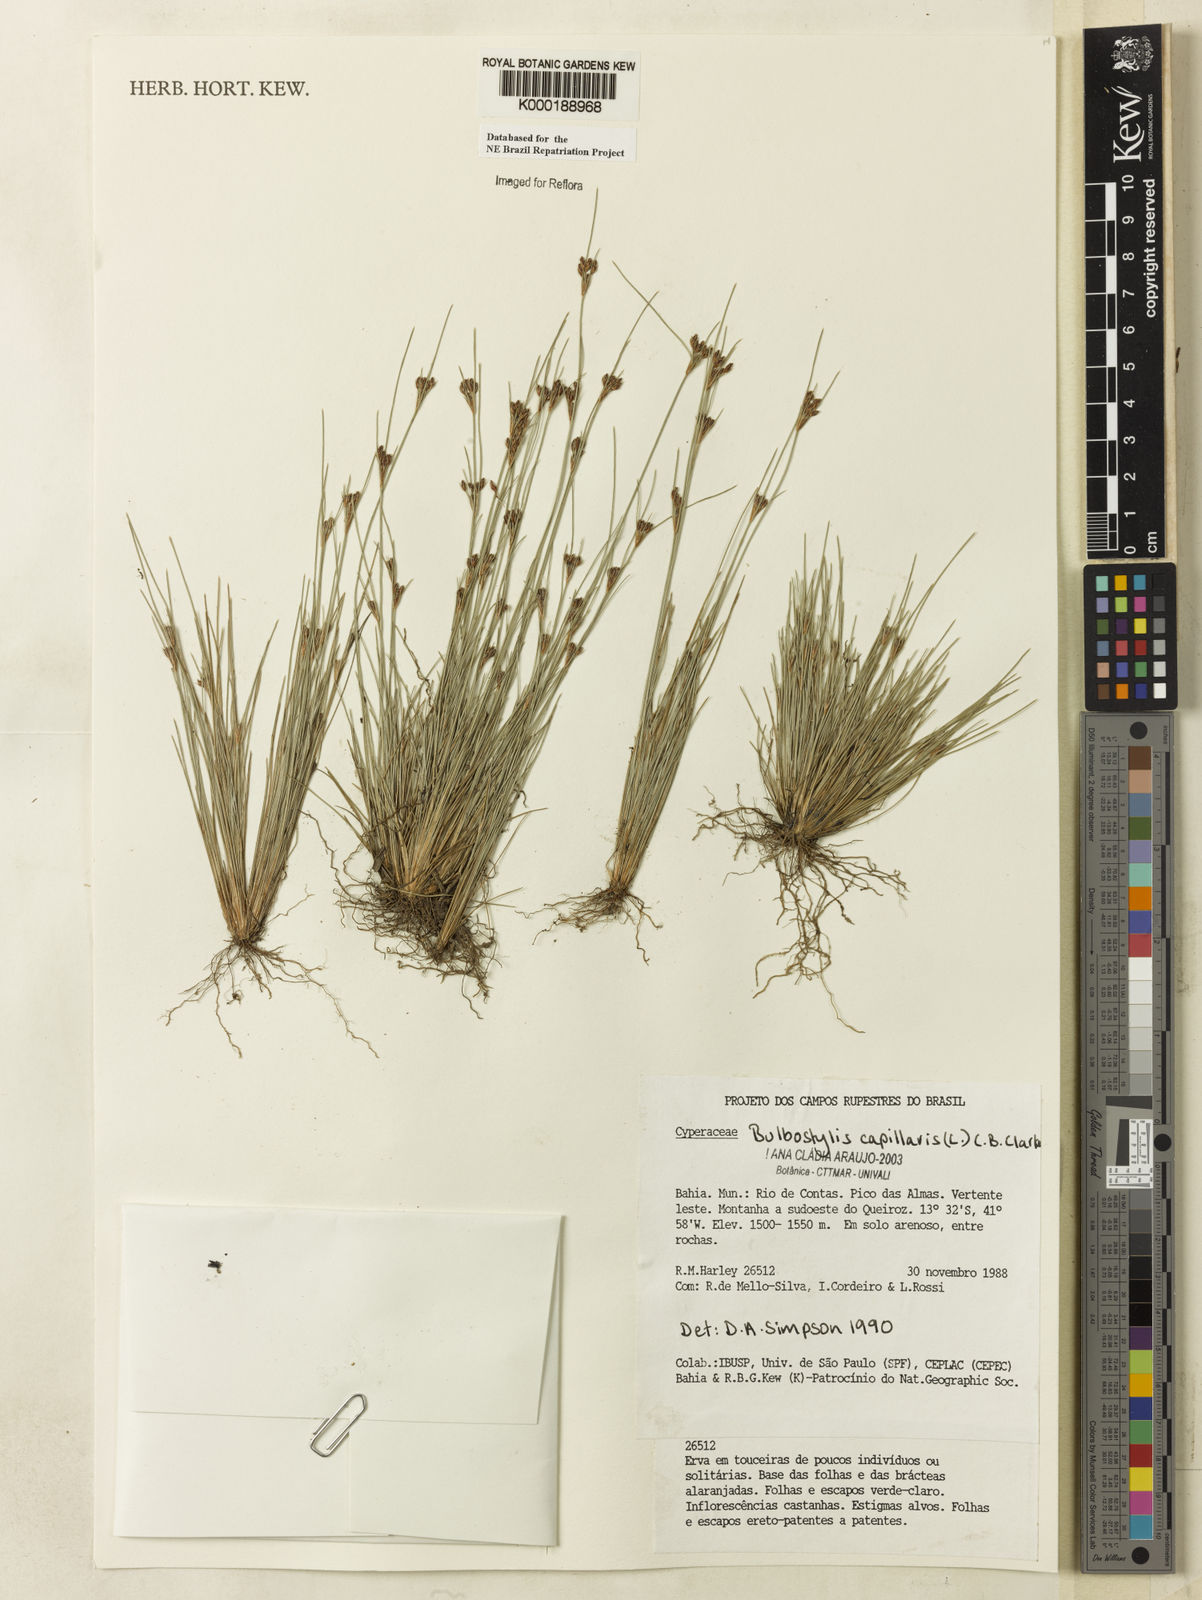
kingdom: Plantae
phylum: Tracheophyta
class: Liliopsida
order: Poales
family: Cyperaceae
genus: Bulbostylis
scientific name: Bulbostylis capillaris
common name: Densetuft hairsedge
